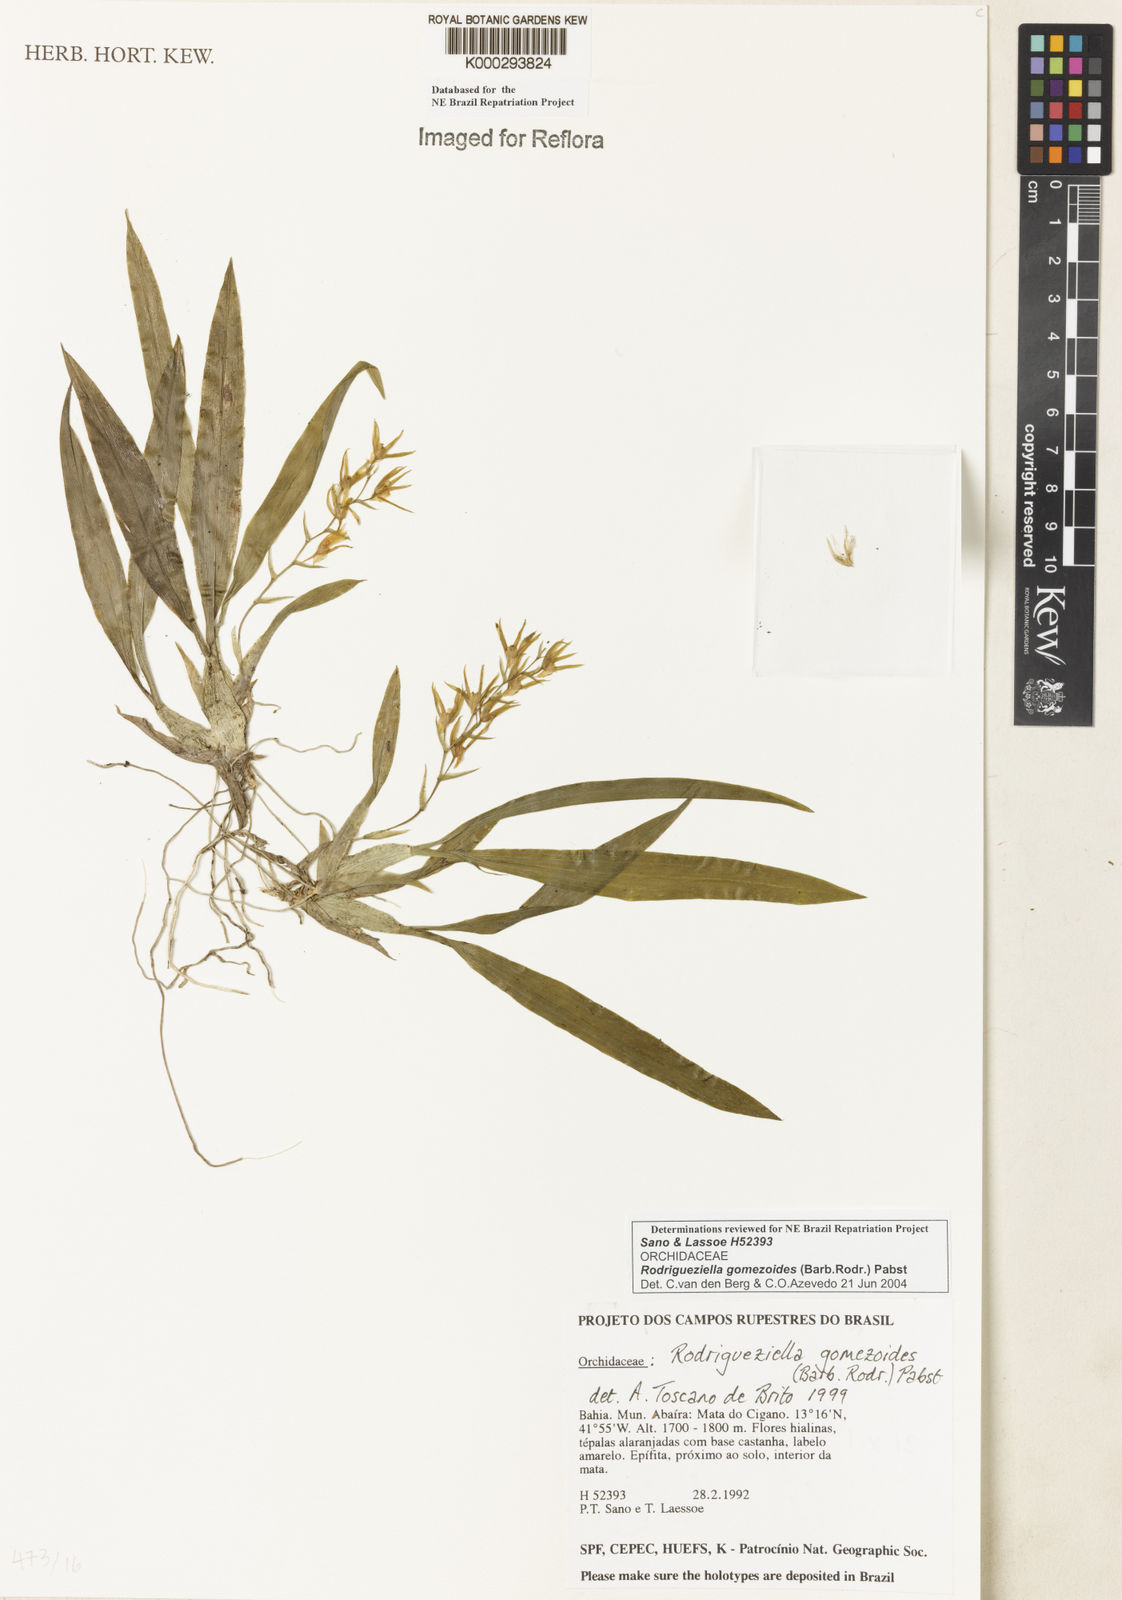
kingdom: Plantae
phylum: Tracheophyta
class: Liliopsida
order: Asparagales
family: Orchidaceae
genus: Gomesa
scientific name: Gomesa gomezoides
